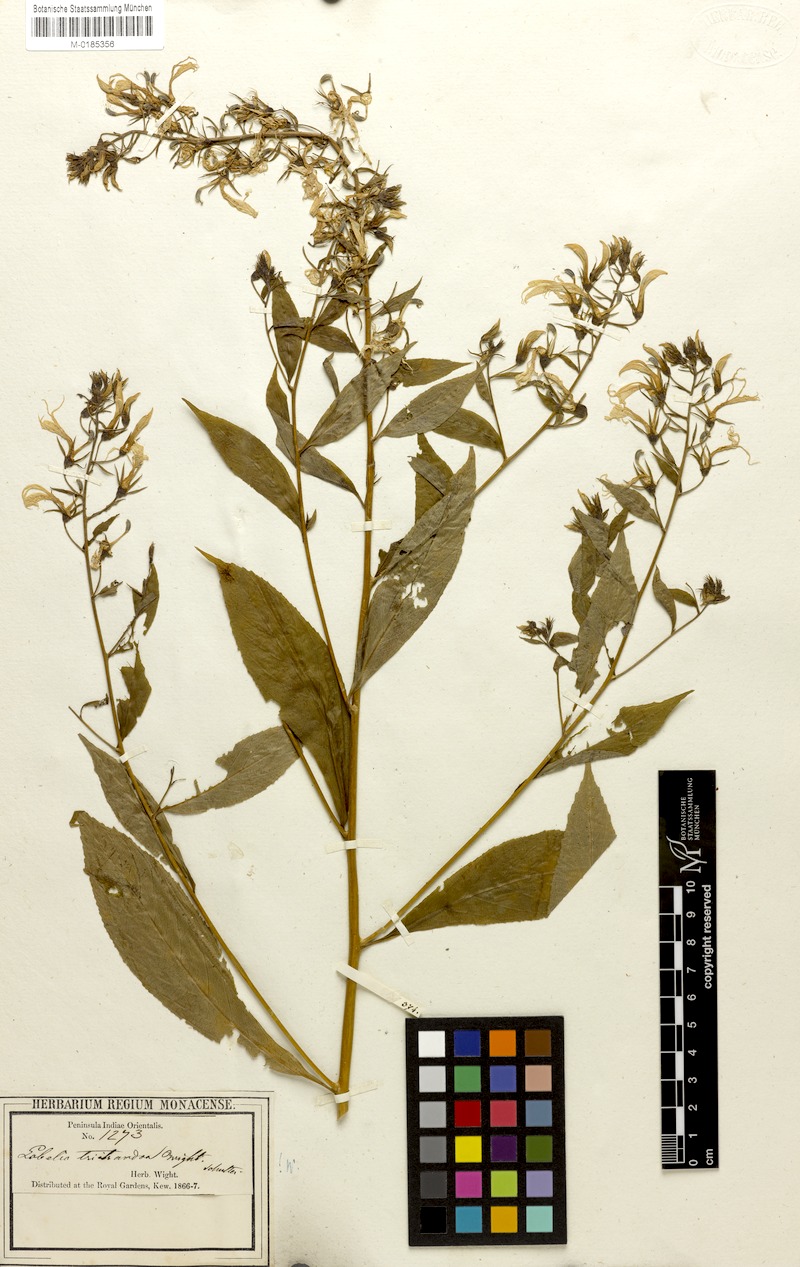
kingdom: Plantae
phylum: Tracheophyta
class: Magnoliopsida
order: Asterales
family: Campanulaceae
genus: Lobelia
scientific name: Lobelia nicotianifolia
